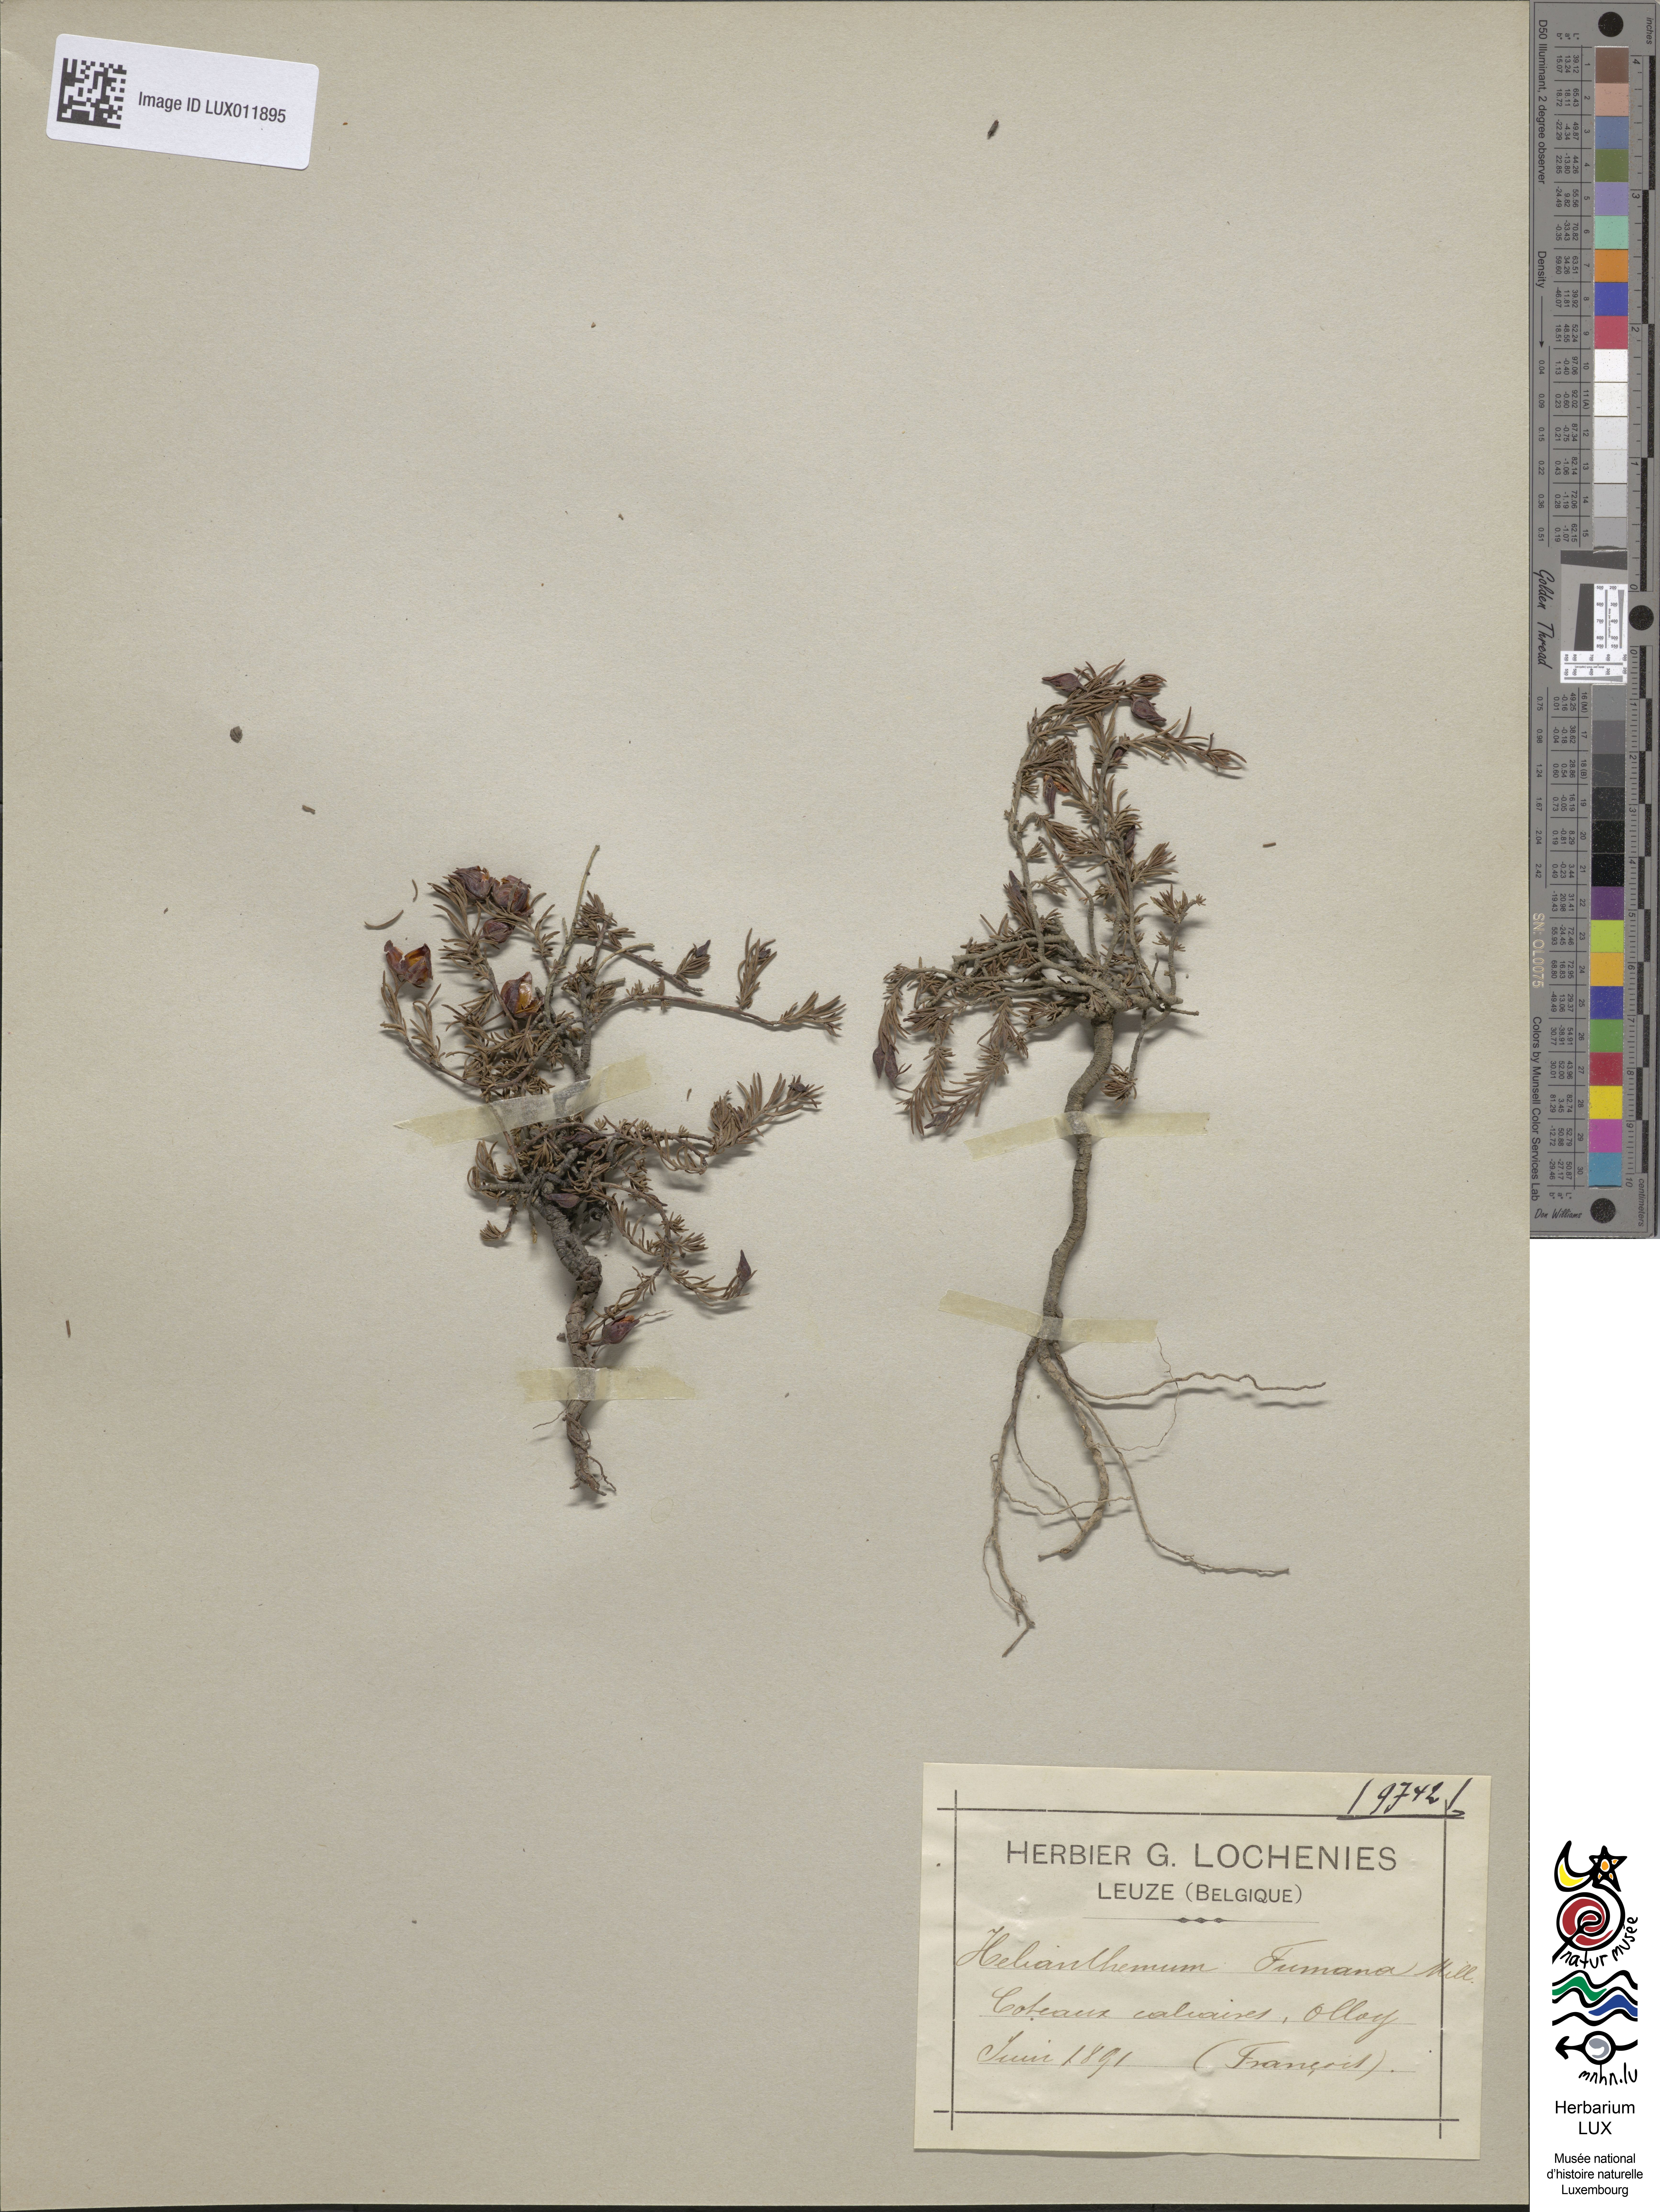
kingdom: Plantae
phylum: Tracheophyta
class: Magnoliopsida
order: Malvales
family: Cistaceae
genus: Fumana
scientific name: Fumana ericoides
